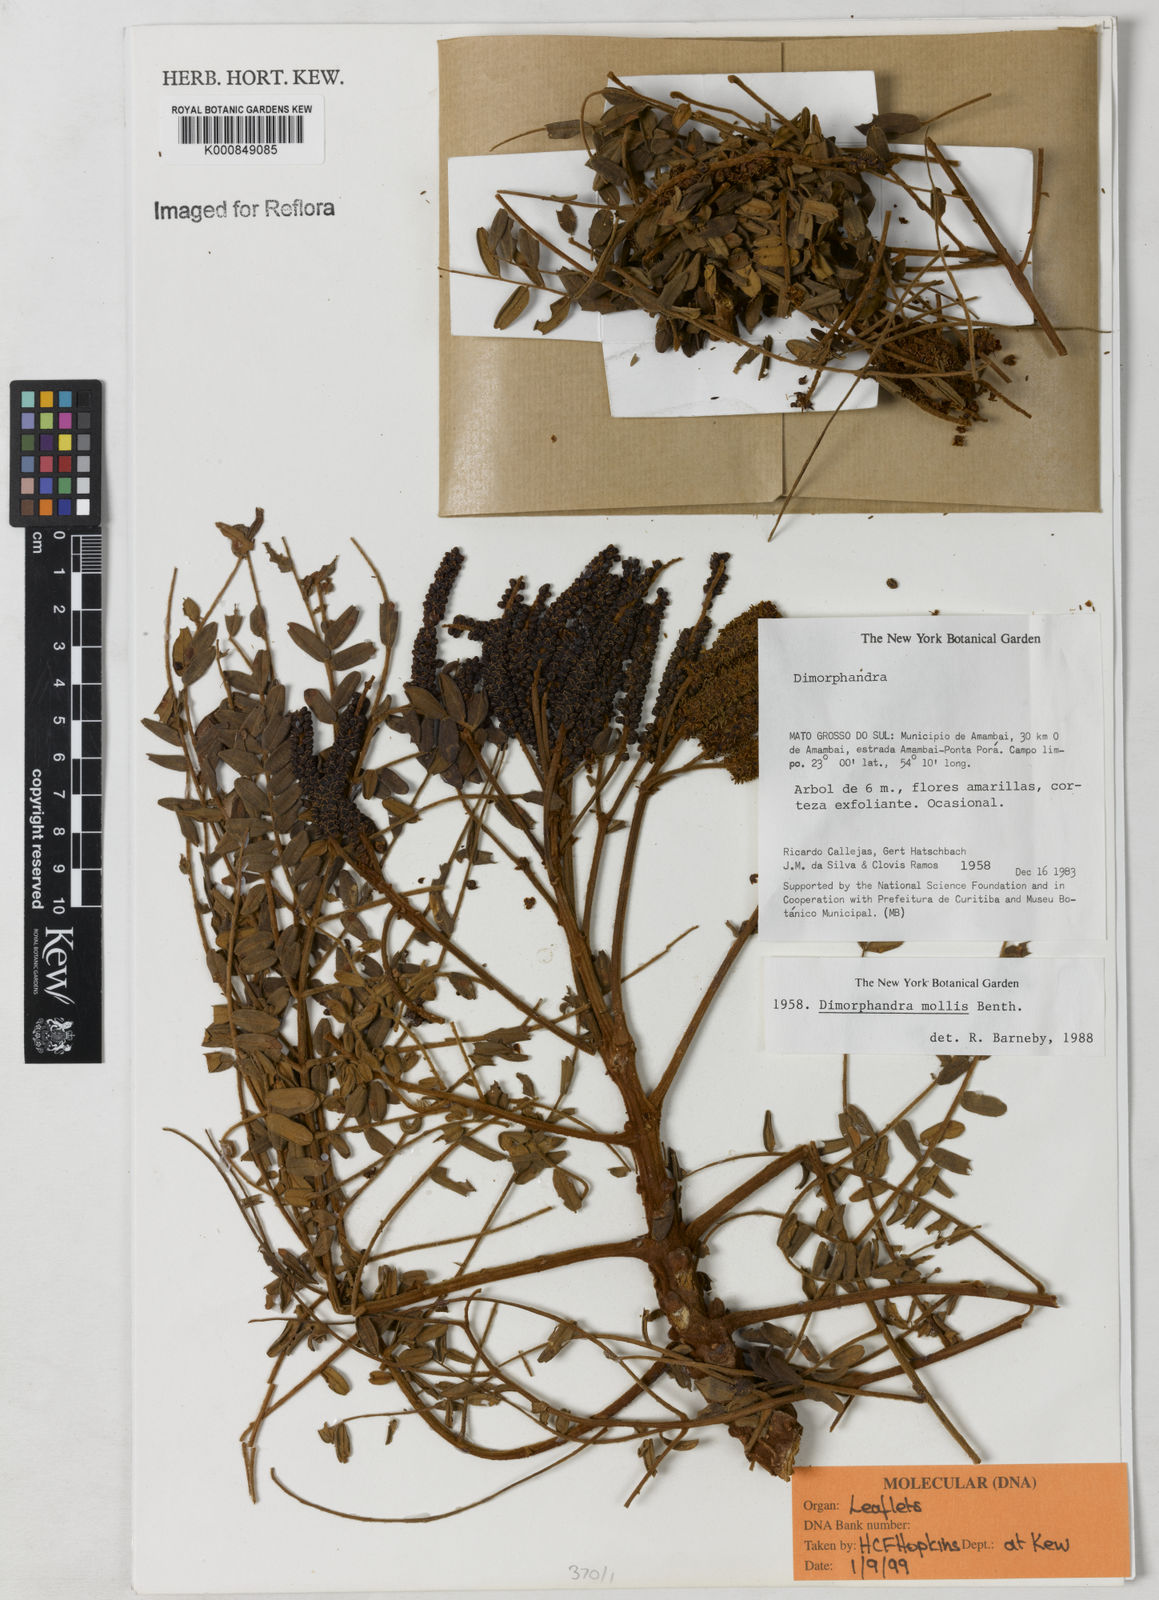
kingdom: Plantae
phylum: Tracheophyta
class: Magnoliopsida
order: Fabales
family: Fabaceae
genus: Dimorphandra
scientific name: Dimorphandra mollis
